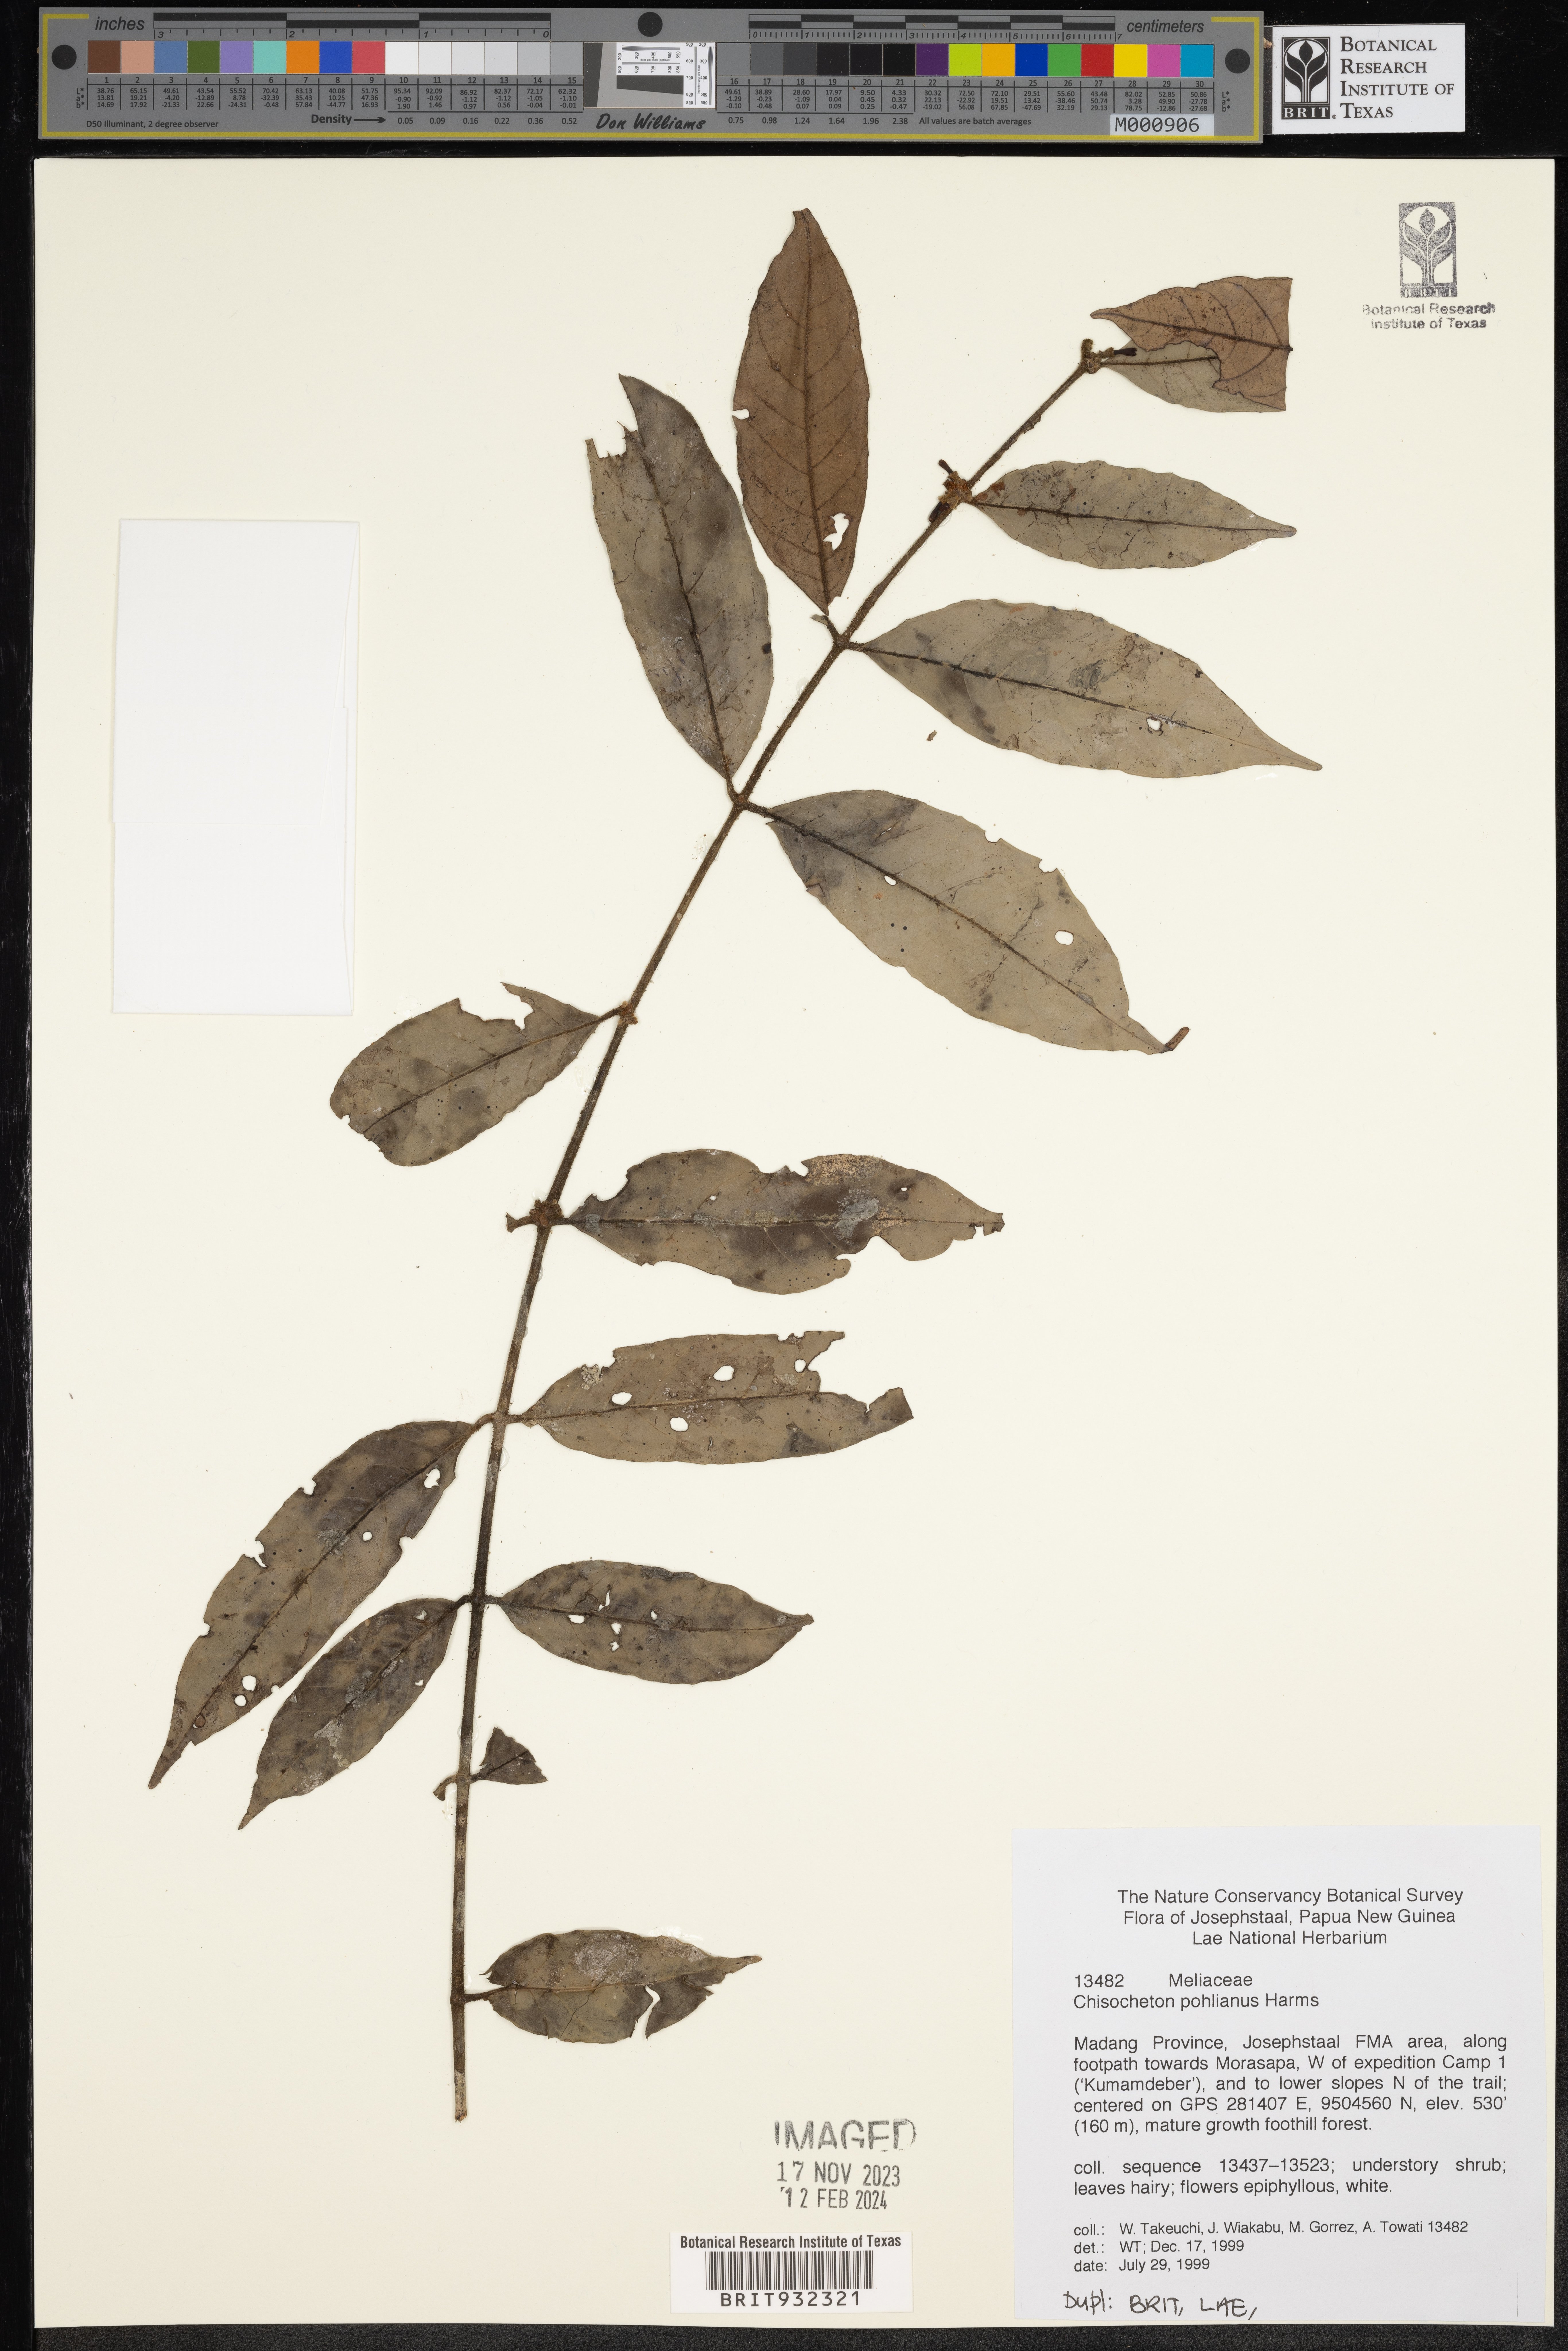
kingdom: Plantae
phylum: Tracheophyta
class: Magnoliopsida
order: Sapindales
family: Meliaceae
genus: Chisocheton
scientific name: Chisocheton
